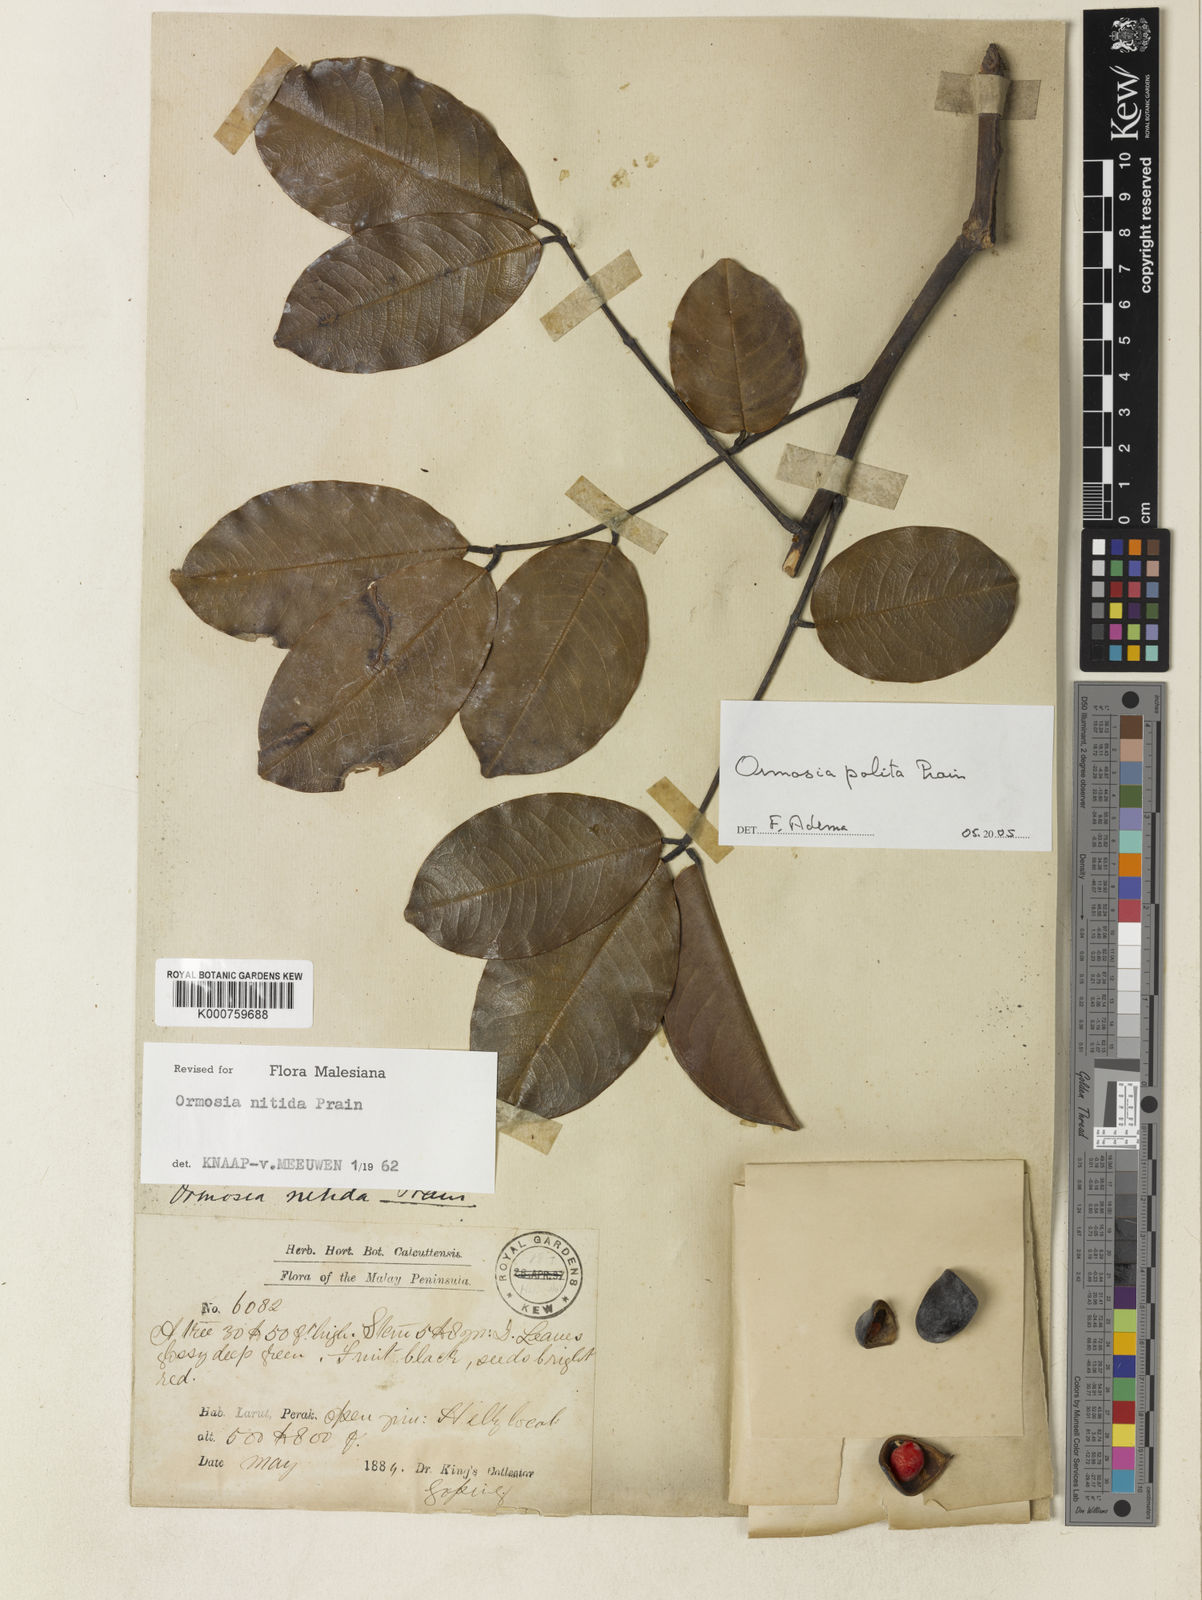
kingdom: Plantae
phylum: Tracheophyta
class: Magnoliopsida
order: Fabales
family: Fabaceae
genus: Ormosia
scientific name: Ormosia polita
